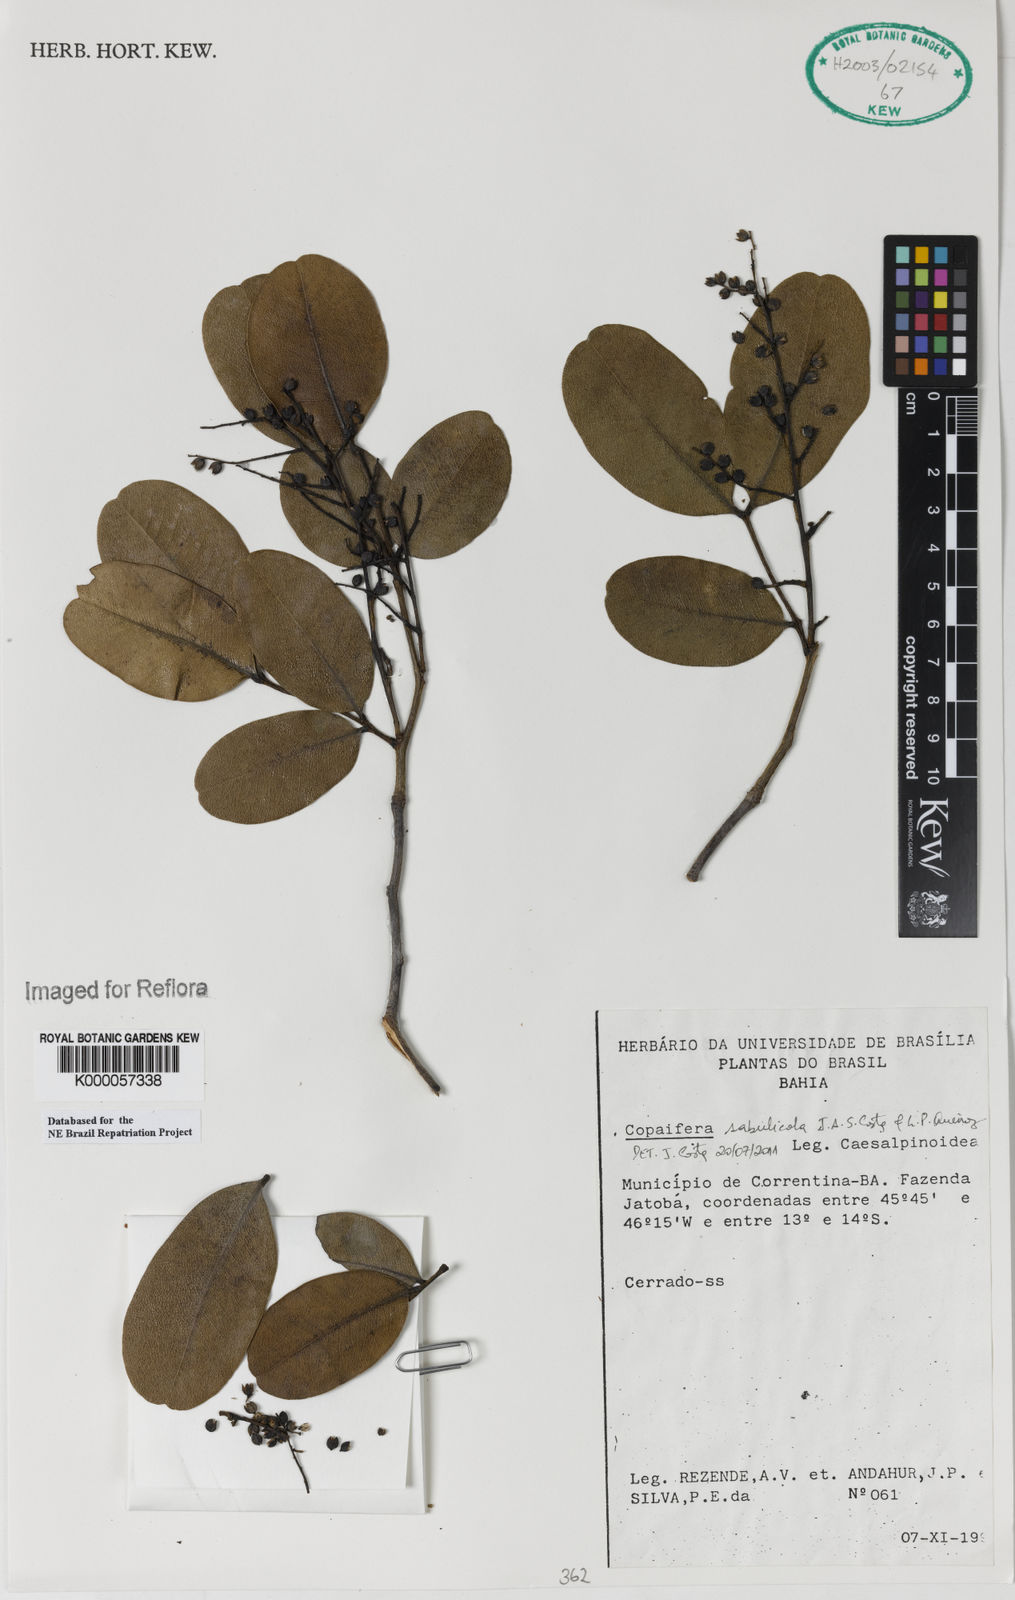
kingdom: Plantae
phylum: Tracheophyta
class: Magnoliopsida
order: Fabales
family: Fabaceae
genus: Copaifera
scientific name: Copaifera
